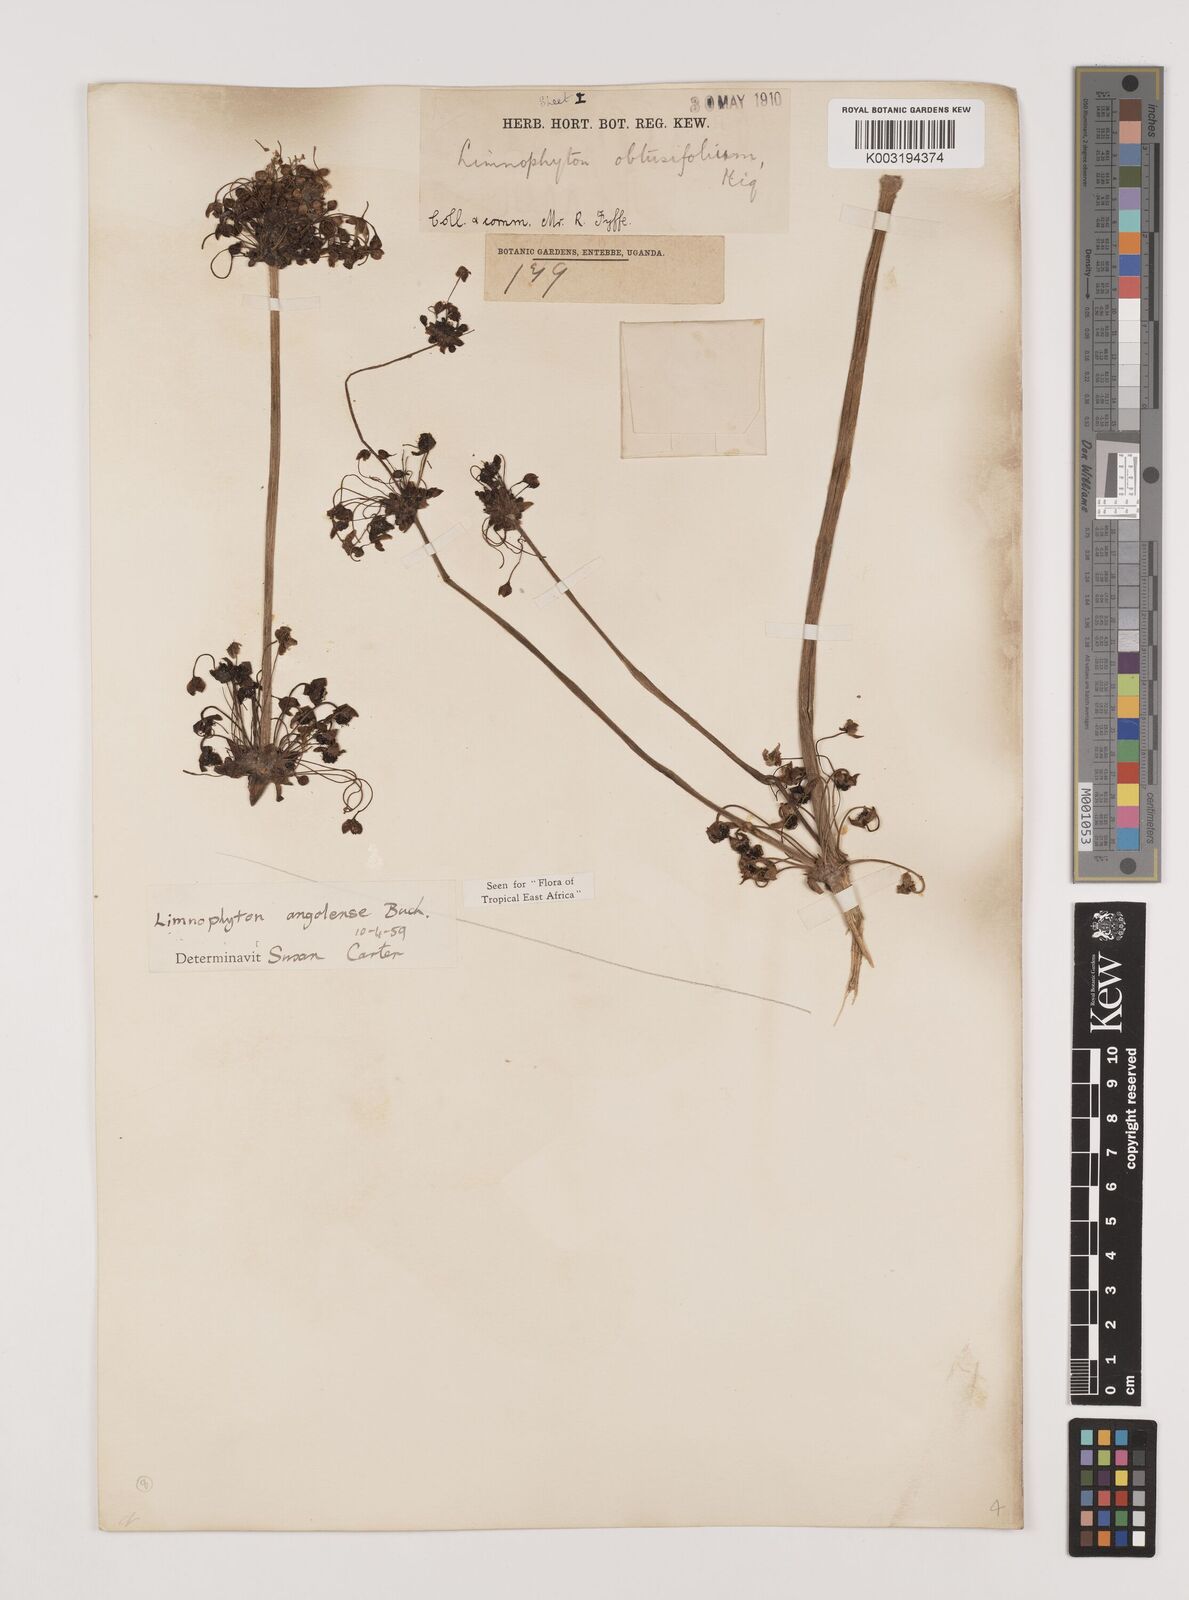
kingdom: Plantae
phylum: Tracheophyta
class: Liliopsida
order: Alismatales
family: Alismataceae
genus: Limnophyton
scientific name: Limnophyton angolense
